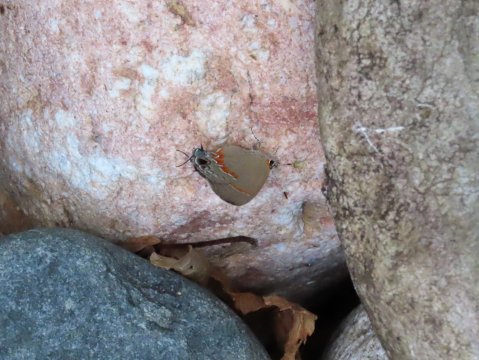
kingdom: Animalia
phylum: Arthropoda
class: Insecta
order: Lepidoptera
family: Lycaenidae
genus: Calycopis
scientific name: Calycopis cecrops
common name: Red-banded Hairstreak
